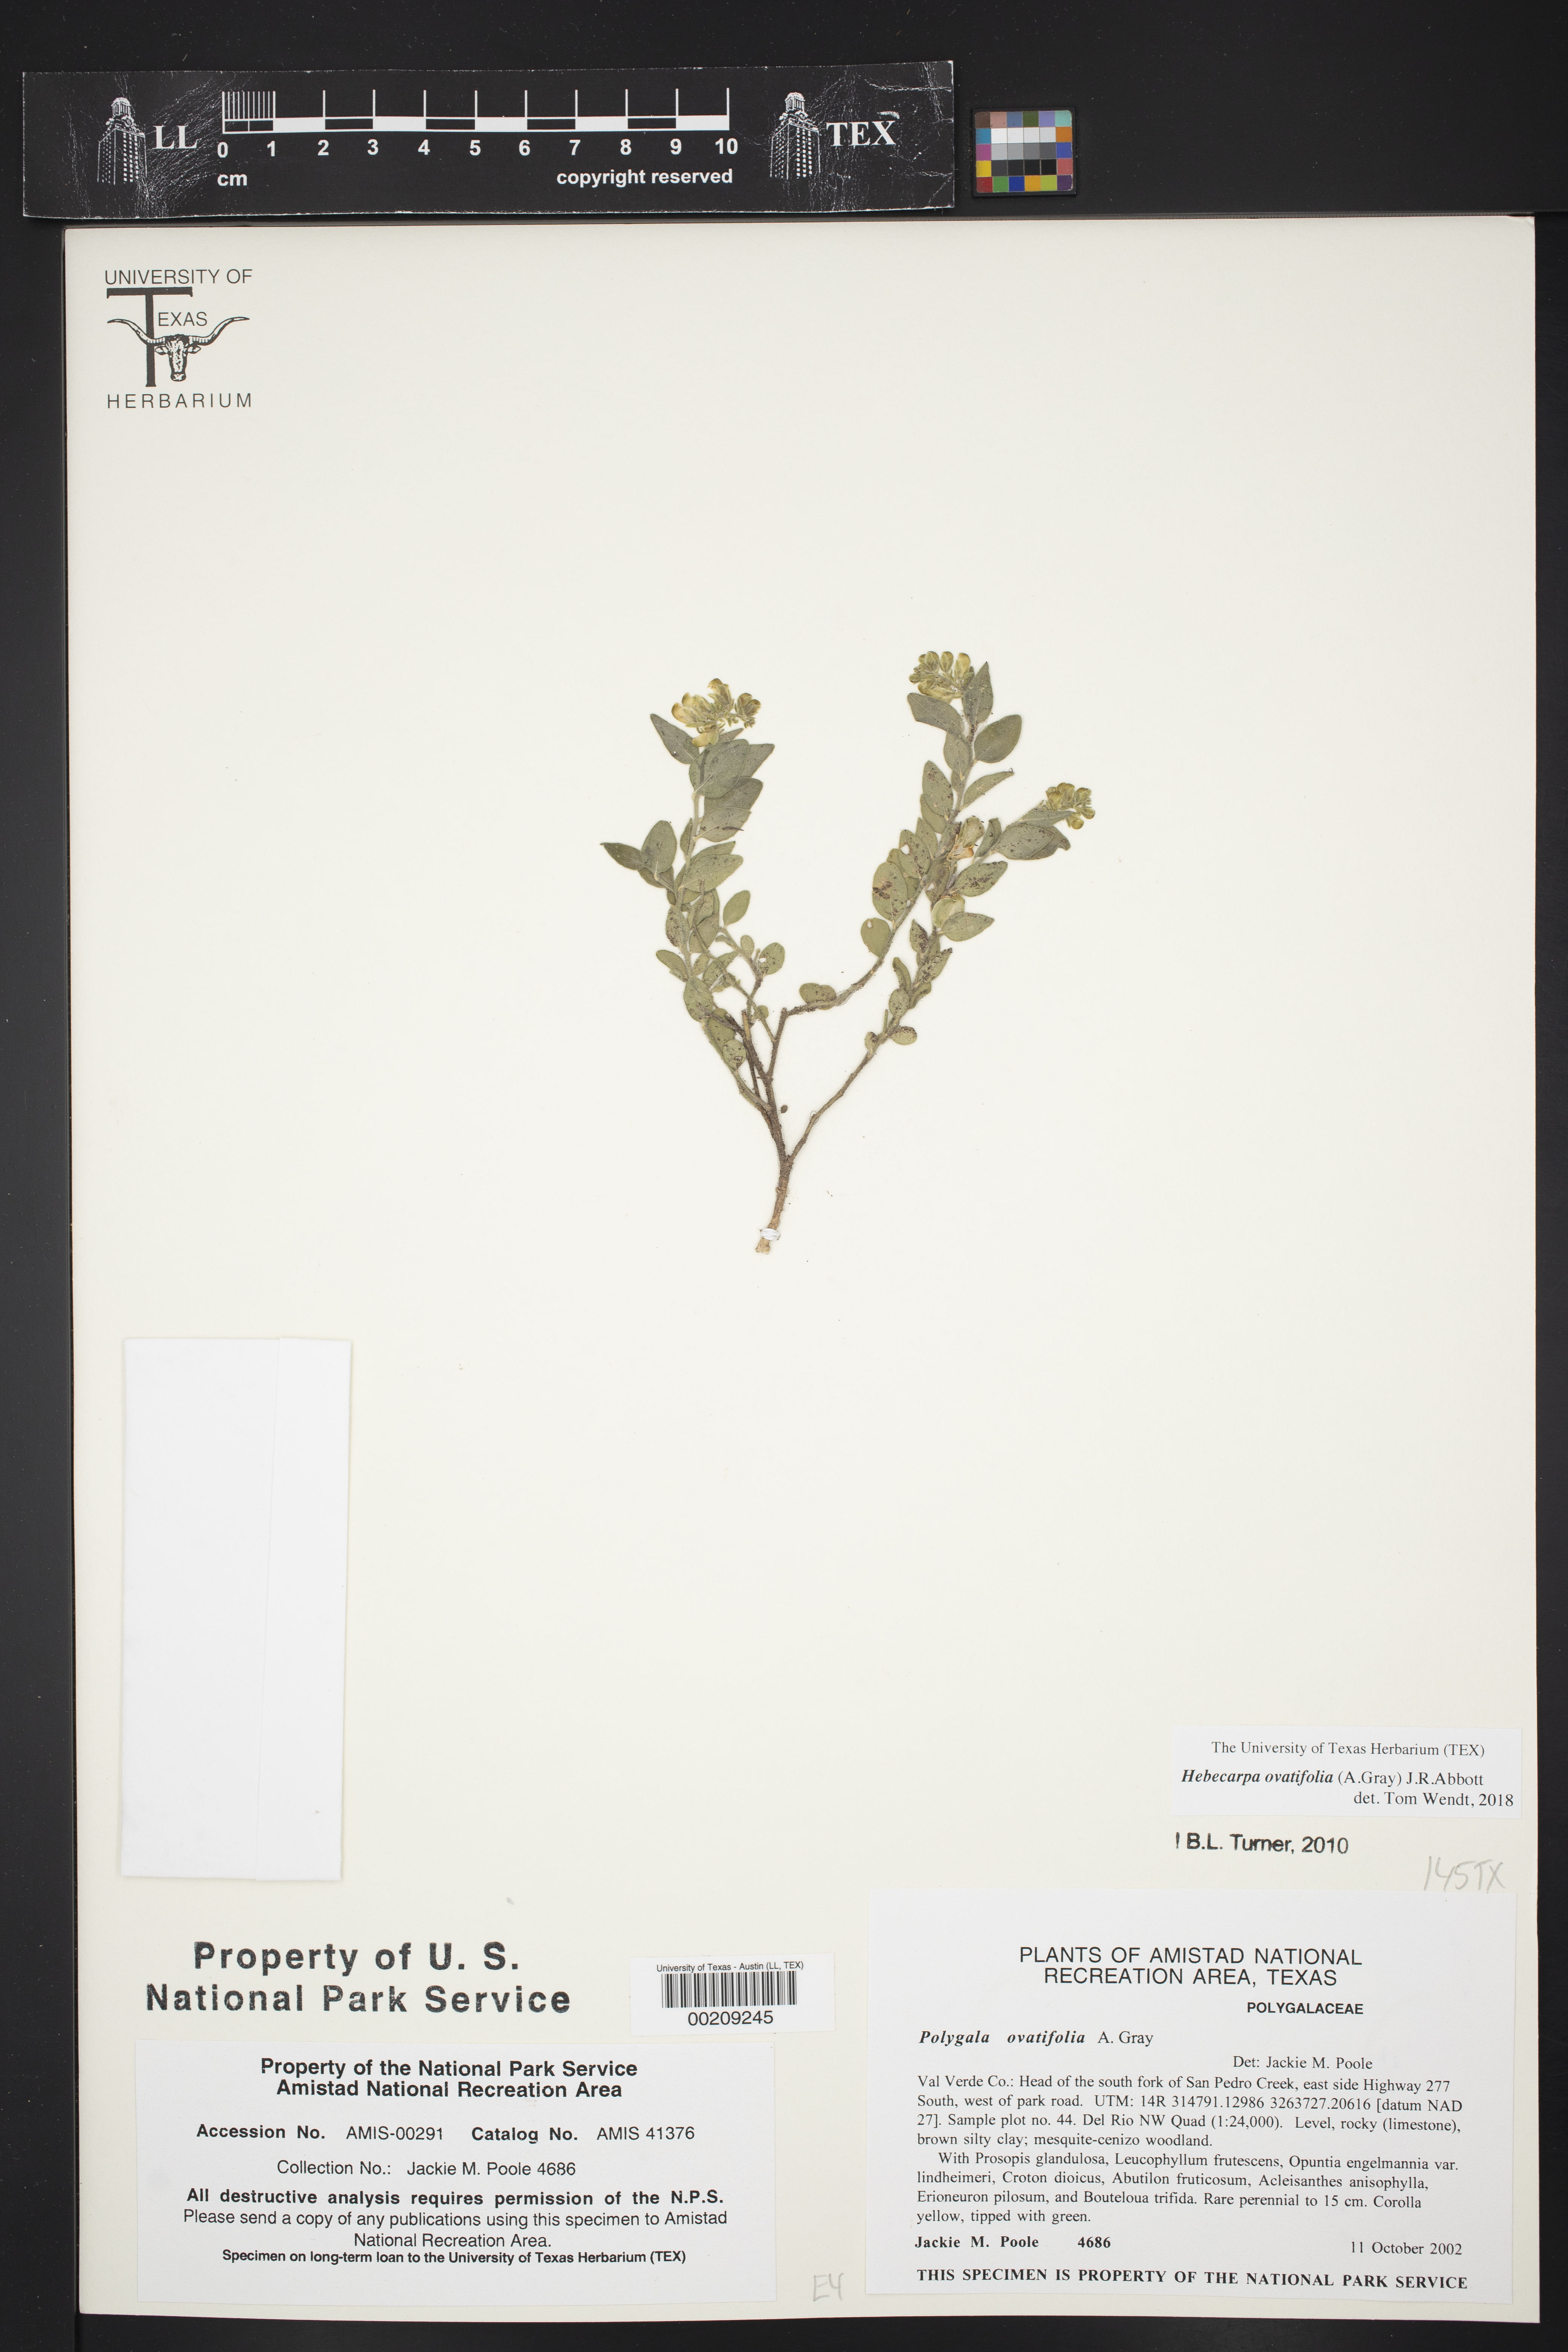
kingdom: Plantae
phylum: Tracheophyta
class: Magnoliopsida
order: Fabales
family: Polygalaceae
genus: Hebecarpa
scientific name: Hebecarpa ovatifolia
